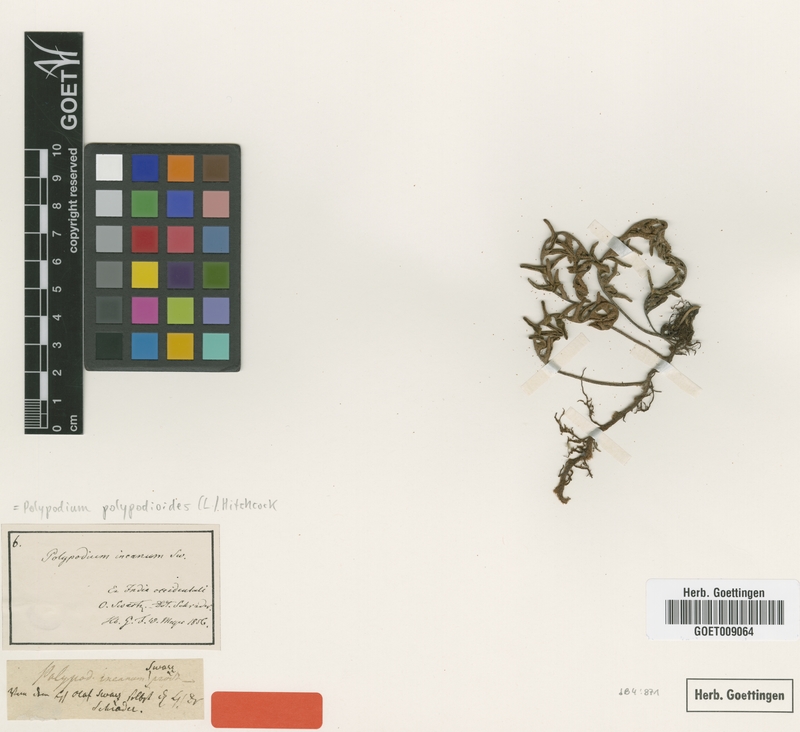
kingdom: Plantae
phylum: Tracheophyta
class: Polypodiopsida
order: Polypodiales
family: Polypodiaceae
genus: Pleopeltis
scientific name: Pleopeltis polypodioides
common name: Resurrection fern
